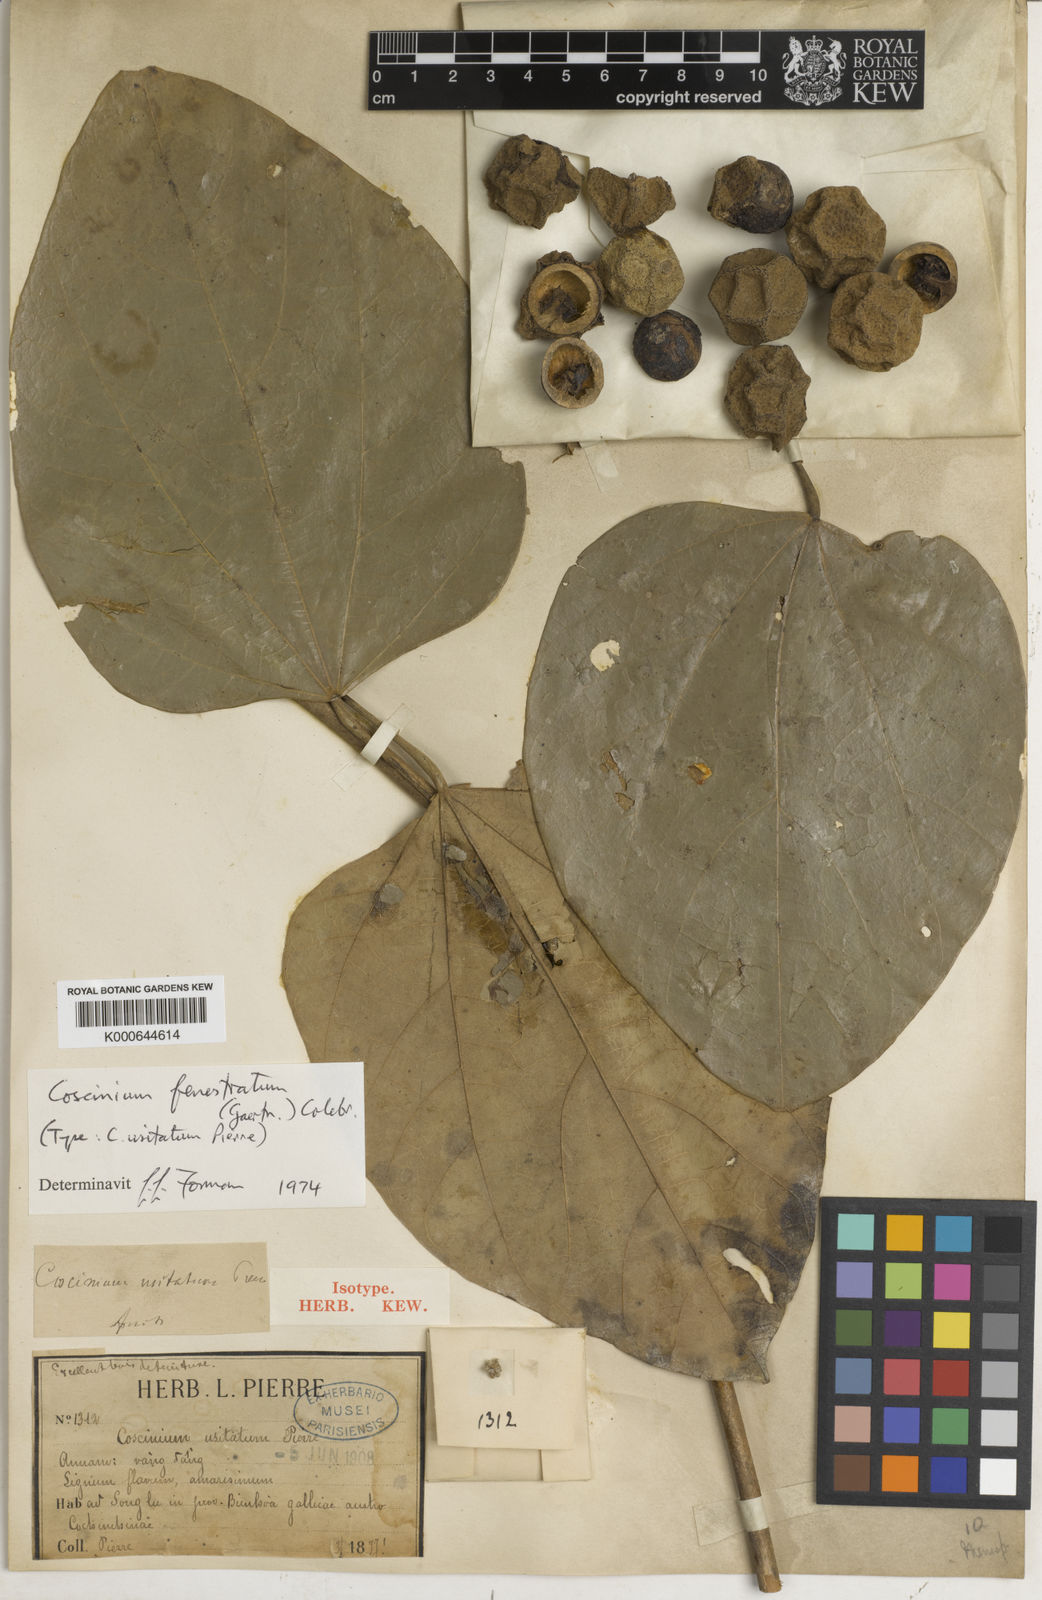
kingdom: Plantae
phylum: Tracheophyta
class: Magnoliopsida
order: Ranunculales
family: Menispermaceae
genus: Coscinium
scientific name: Coscinium fenestratum
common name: False calumba
